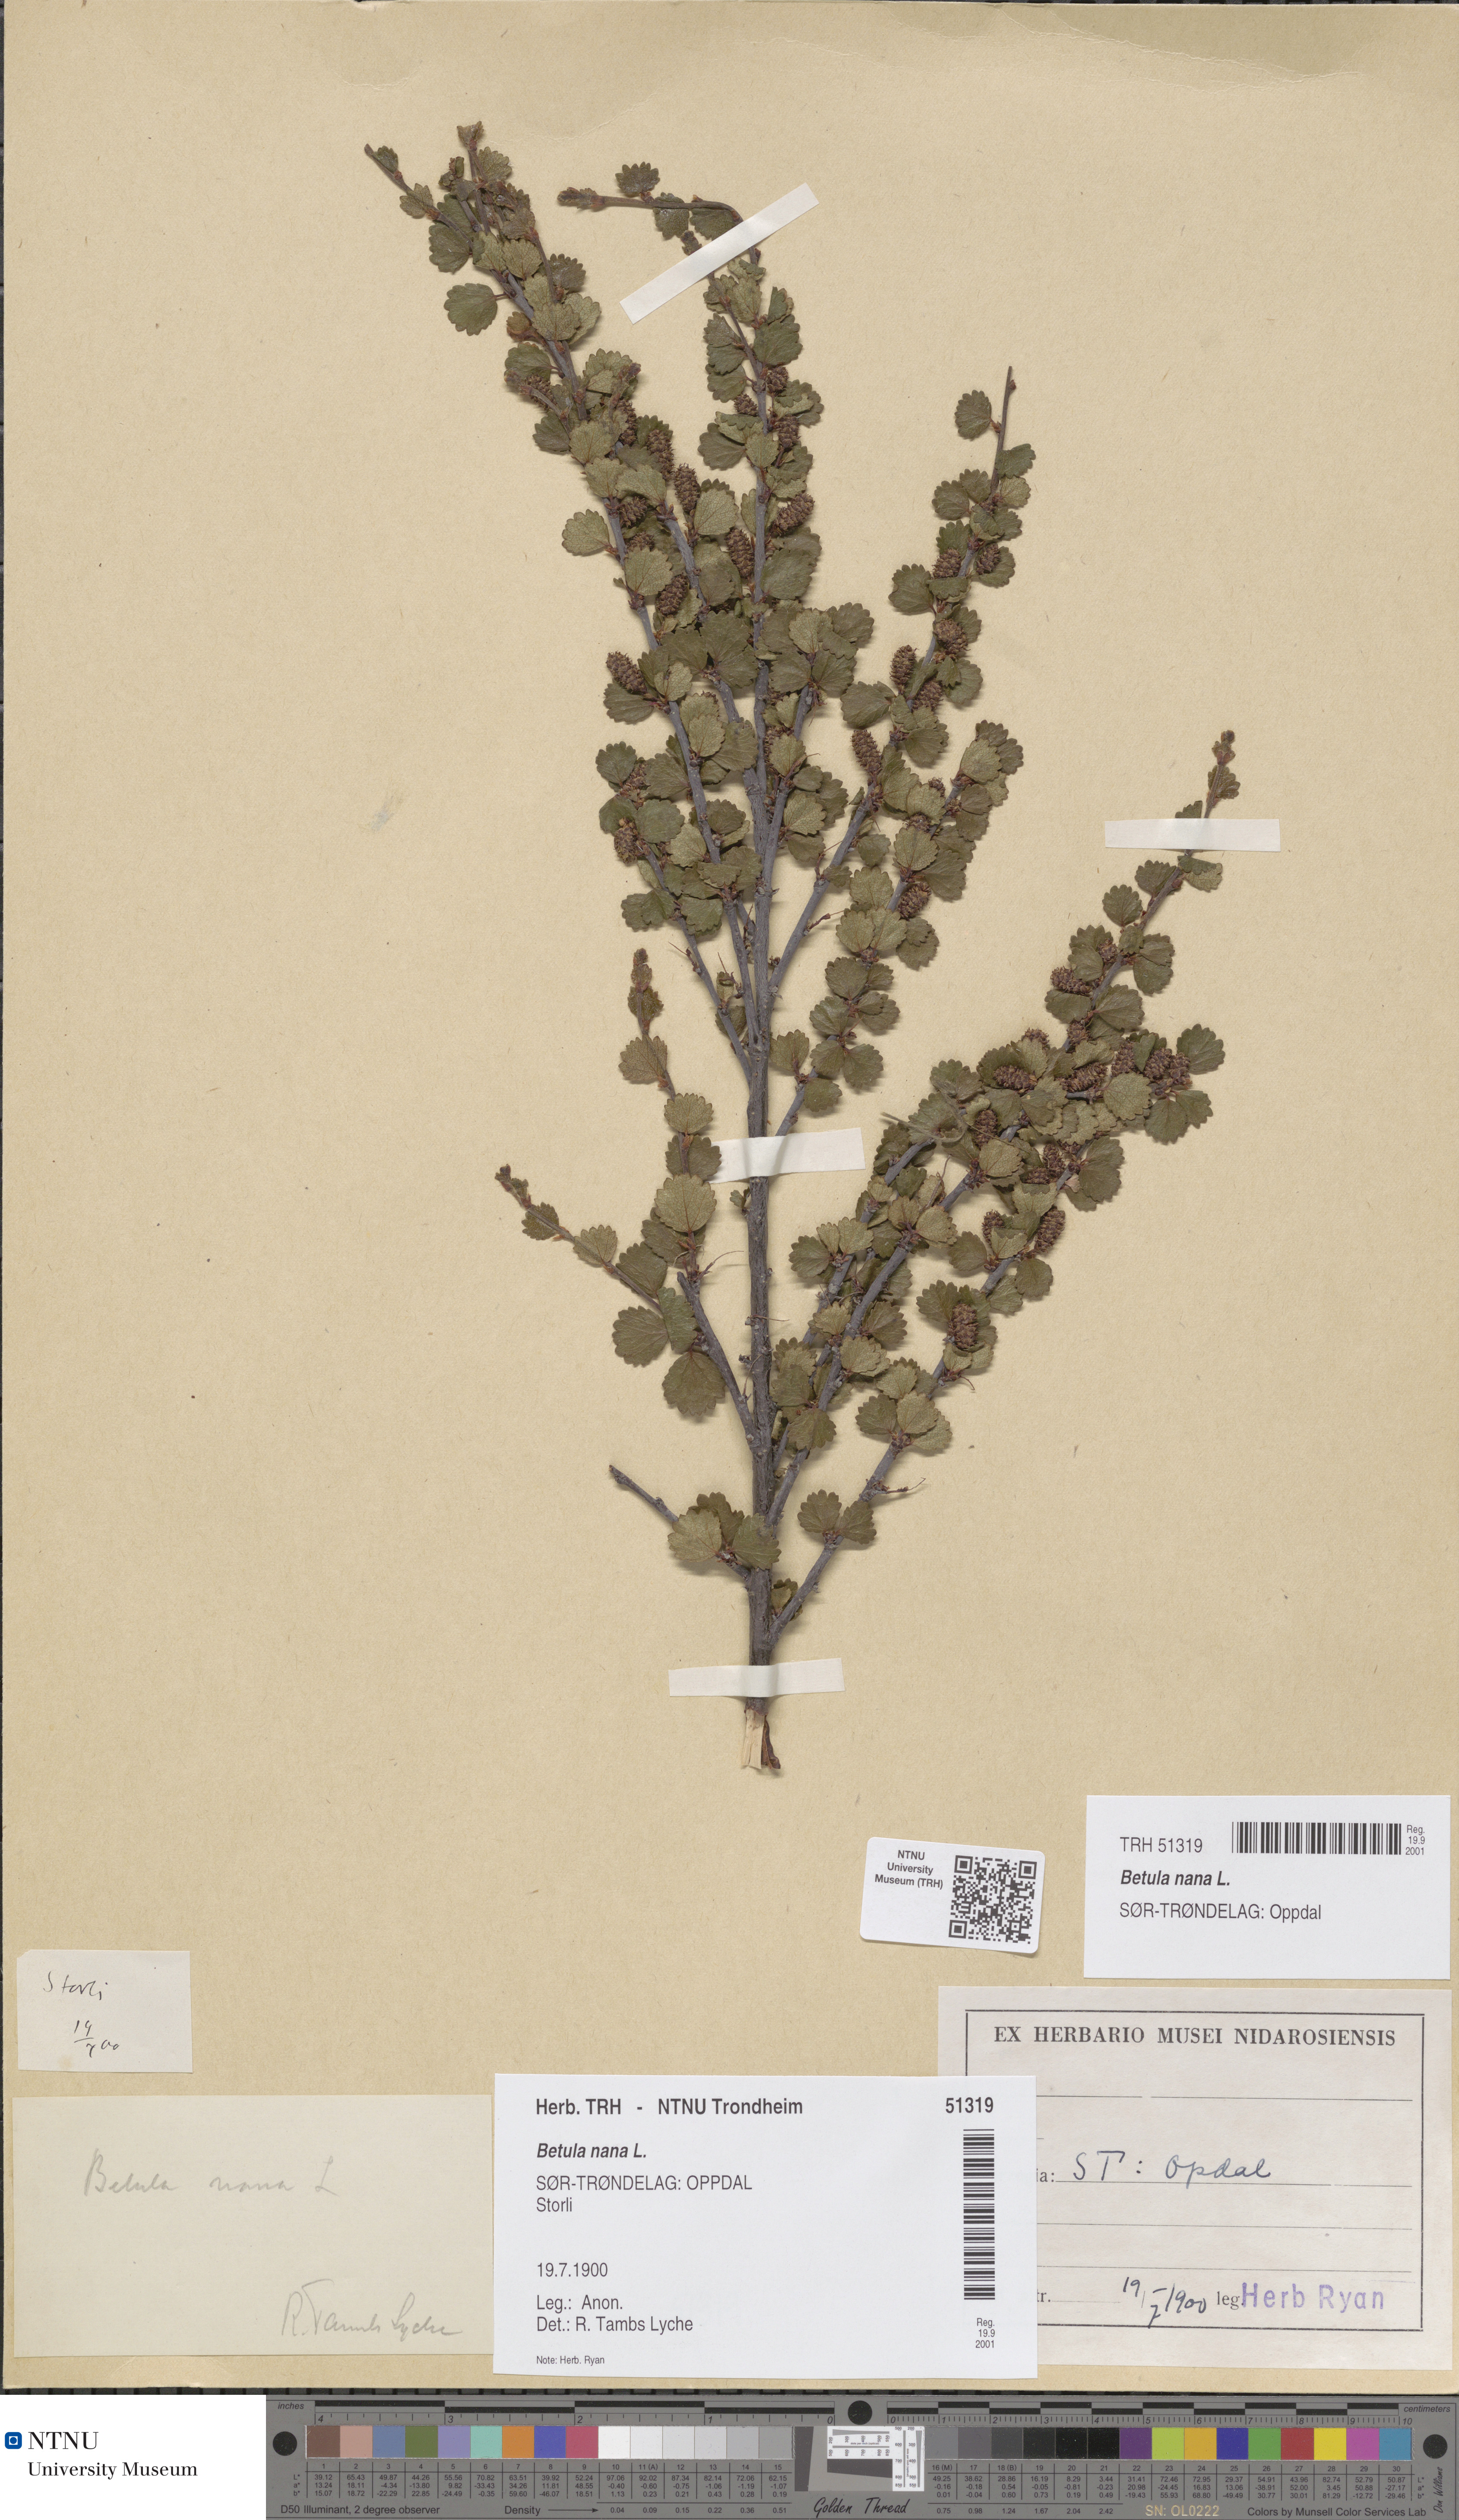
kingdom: Plantae
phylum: Tracheophyta
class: Magnoliopsida
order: Fagales
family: Betulaceae
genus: Betula
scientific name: Betula nana
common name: Arctic dwarf birch
